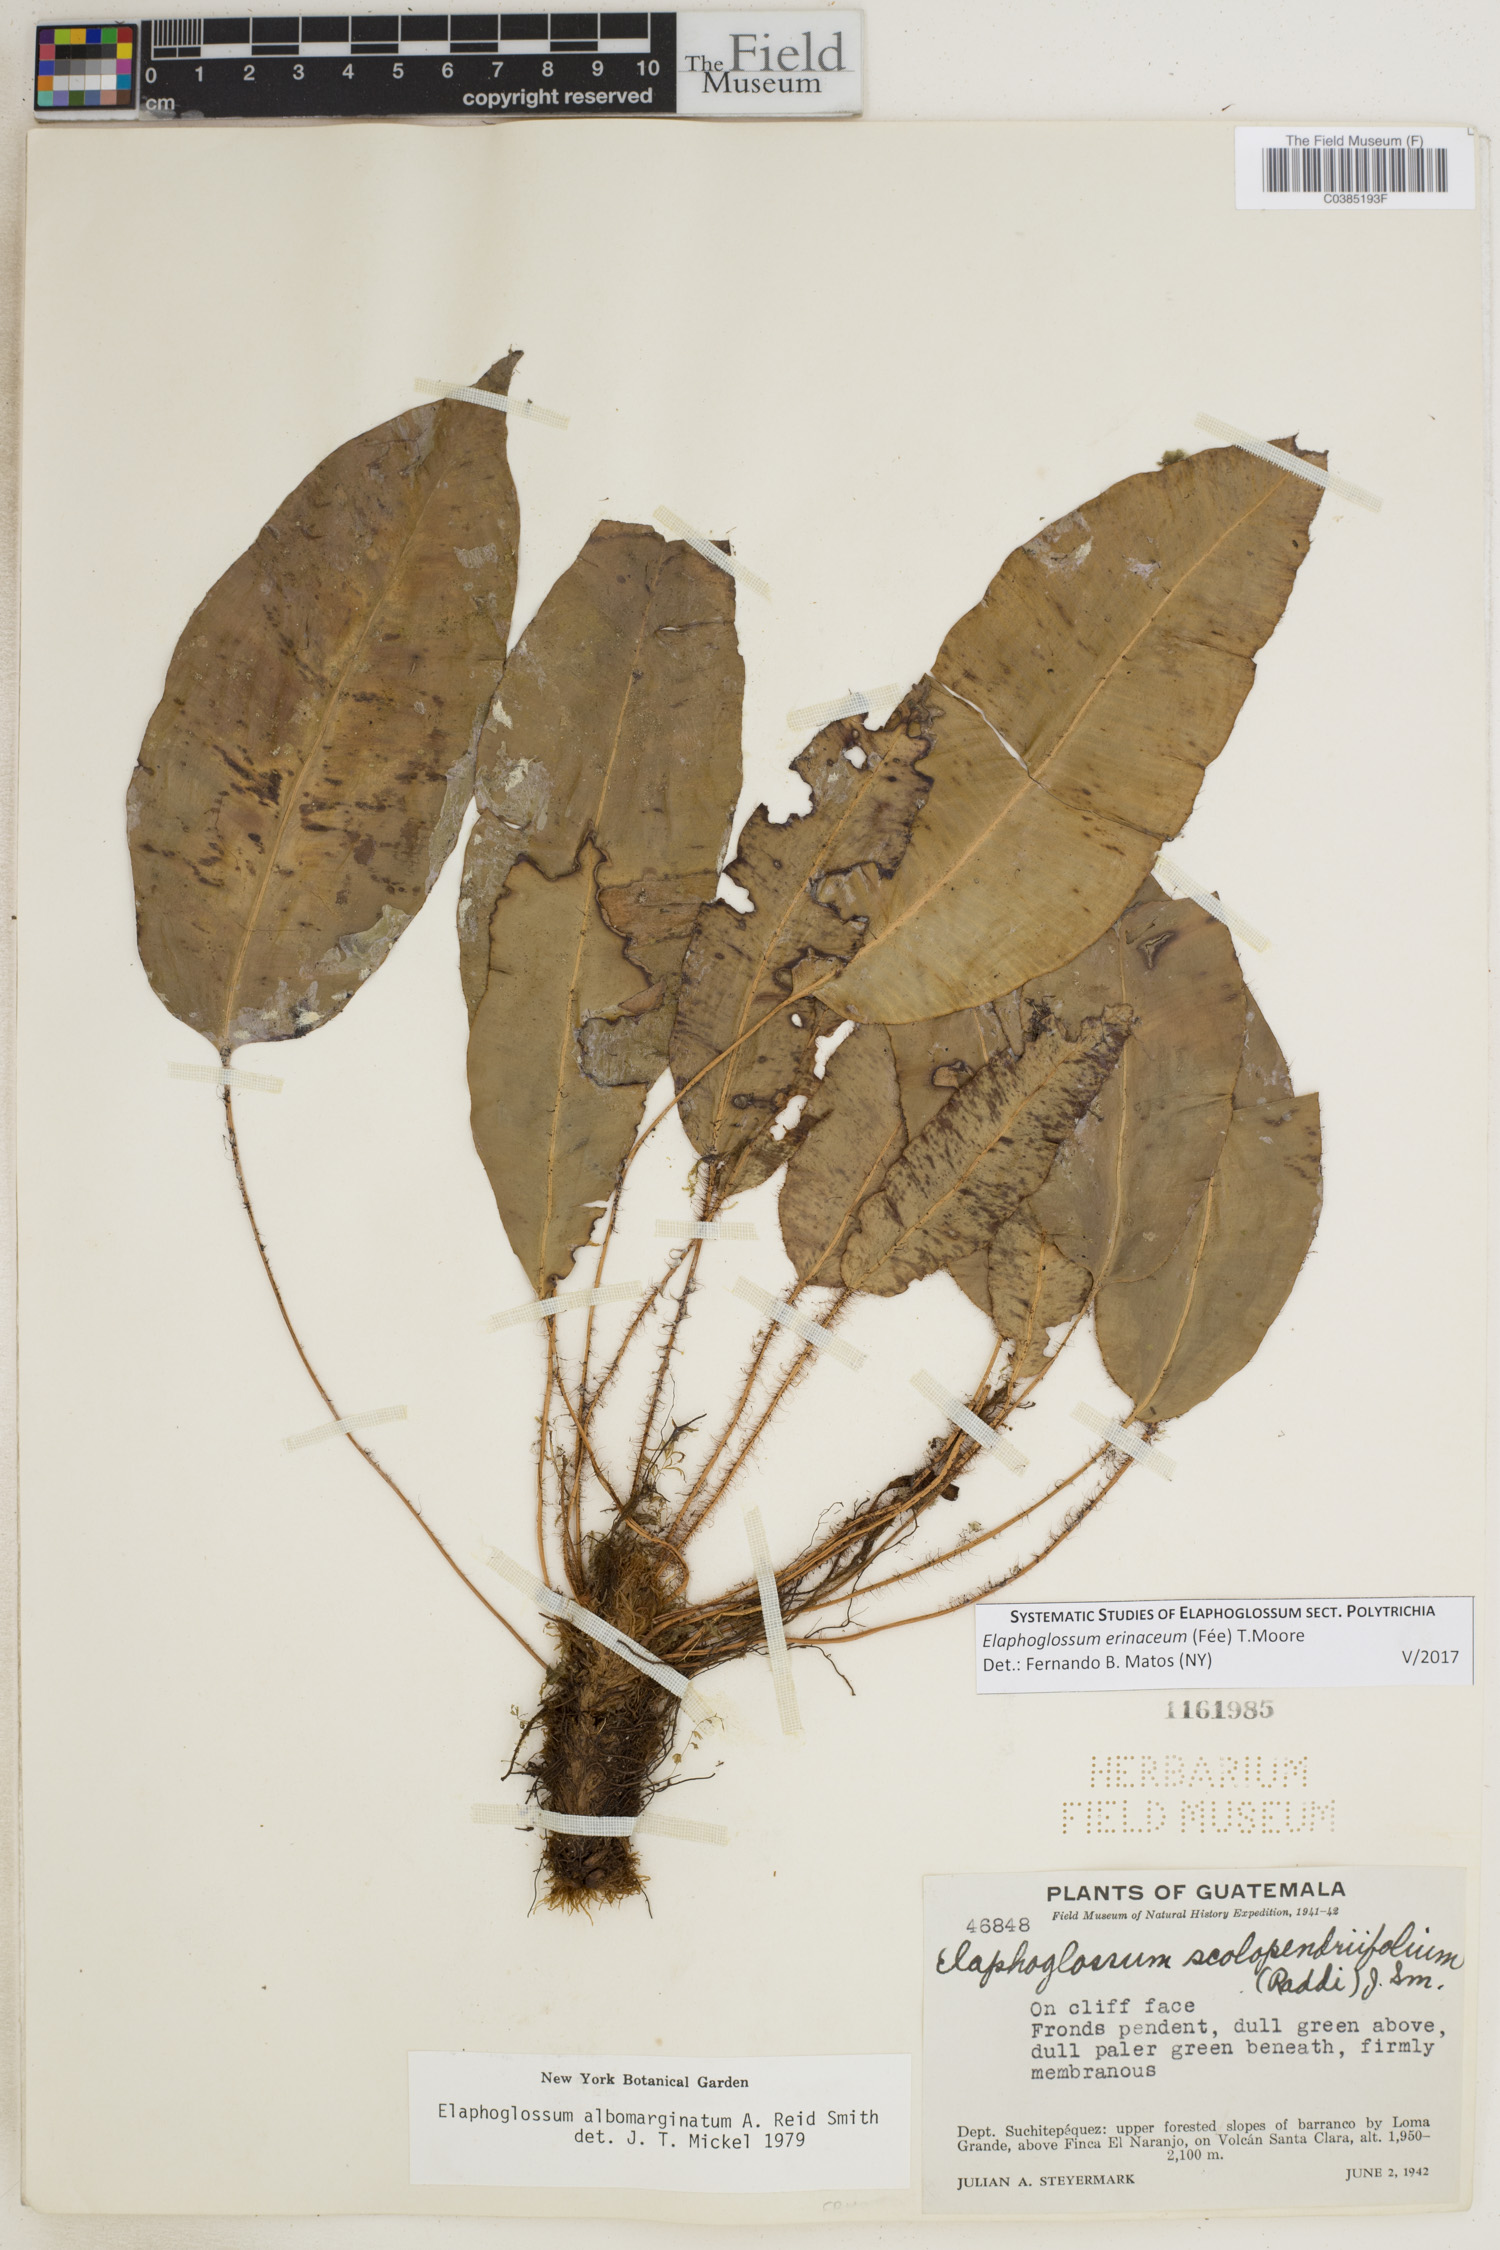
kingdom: Plantae
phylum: Tracheophyta
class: Polypodiopsida
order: Polypodiales
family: Dryopteridaceae
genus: Elaphoglossum
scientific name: Elaphoglossum erinaceum
